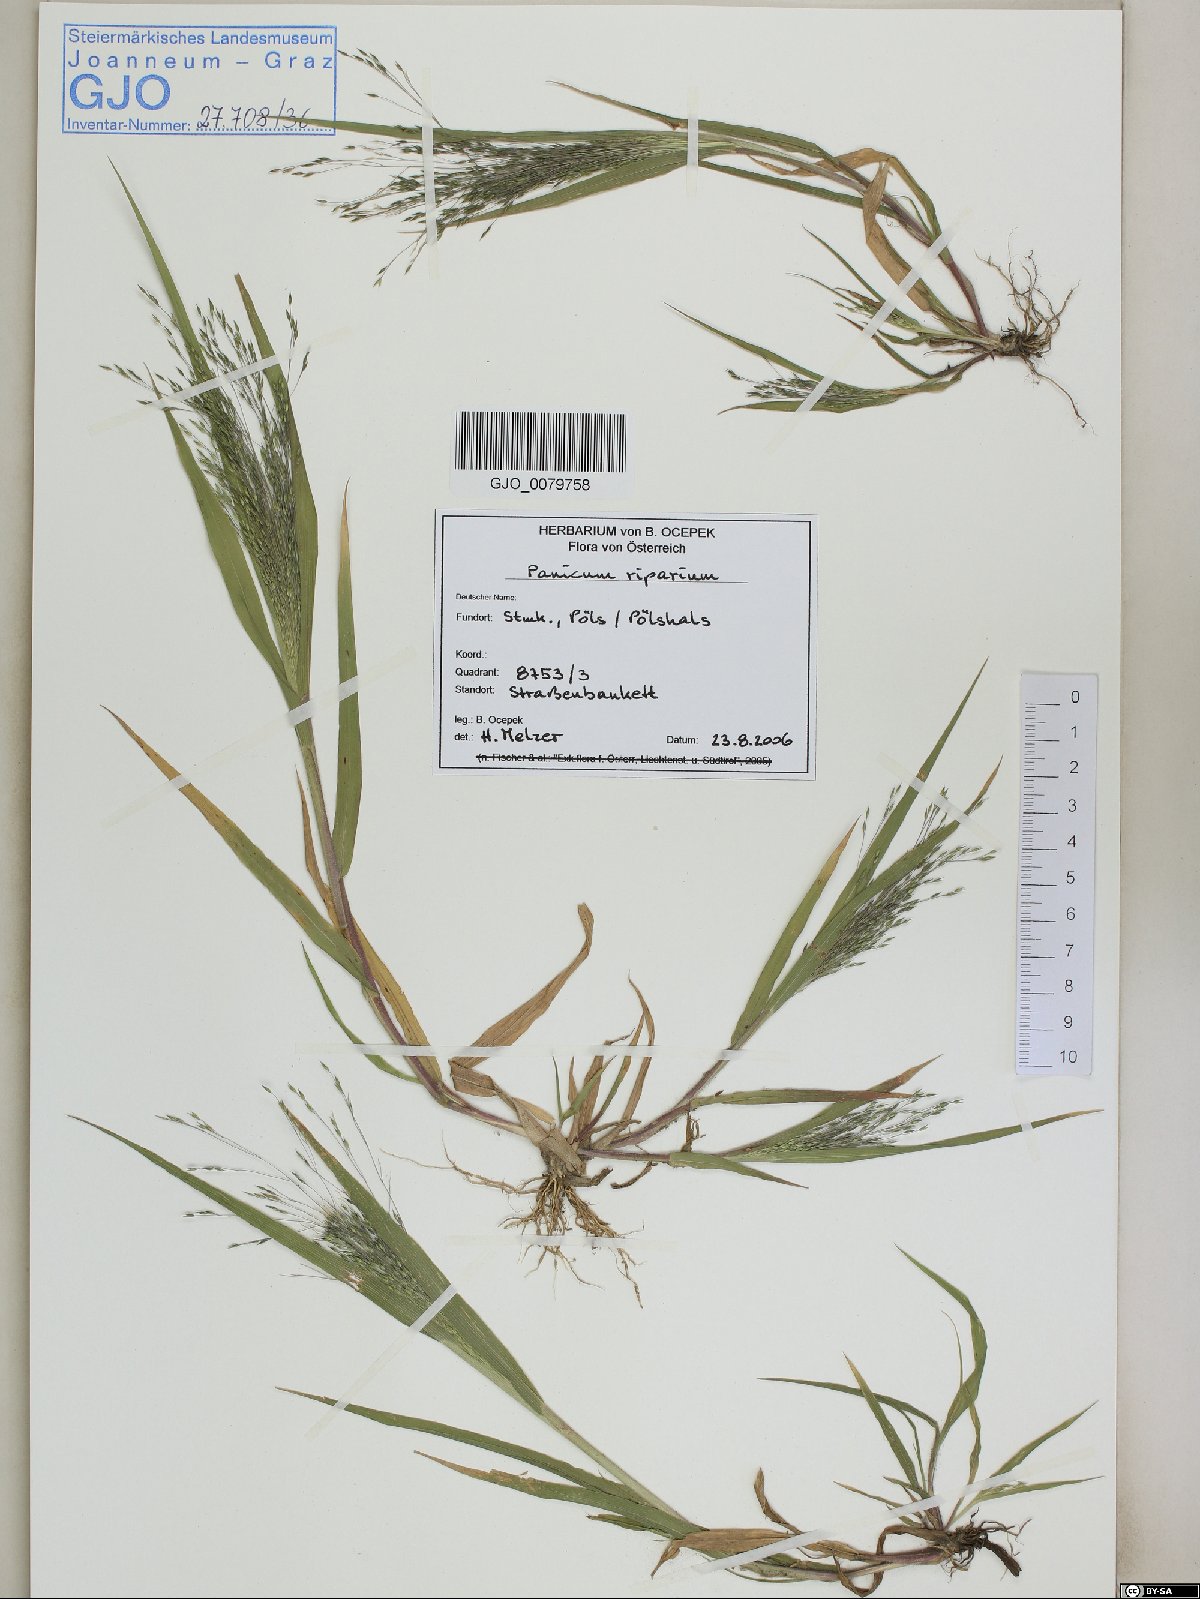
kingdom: Plantae
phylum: Tracheophyta
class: Liliopsida
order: Poales
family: Poaceae
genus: Panicum
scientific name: Panicum capillare
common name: Witch-grass
